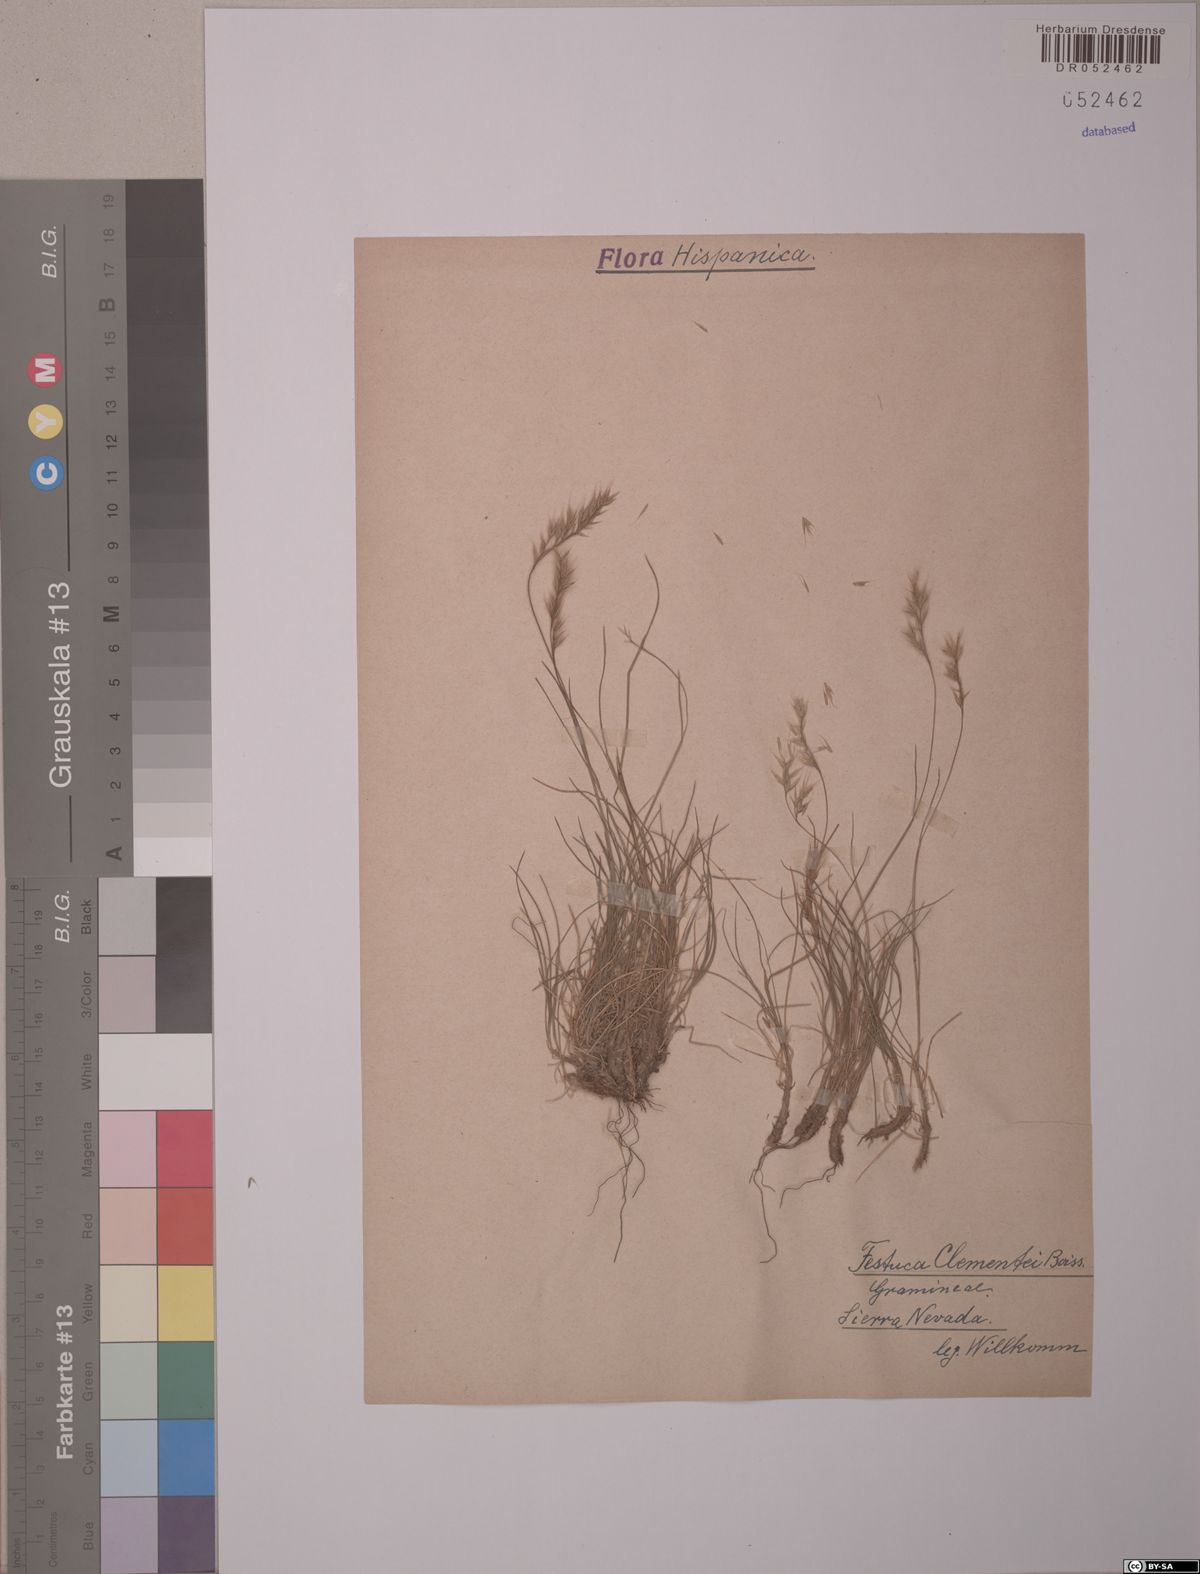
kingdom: Plantae
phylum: Tracheophyta
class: Liliopsida
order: Poales
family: Poaceae
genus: Festuca
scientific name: Festuca clementei
